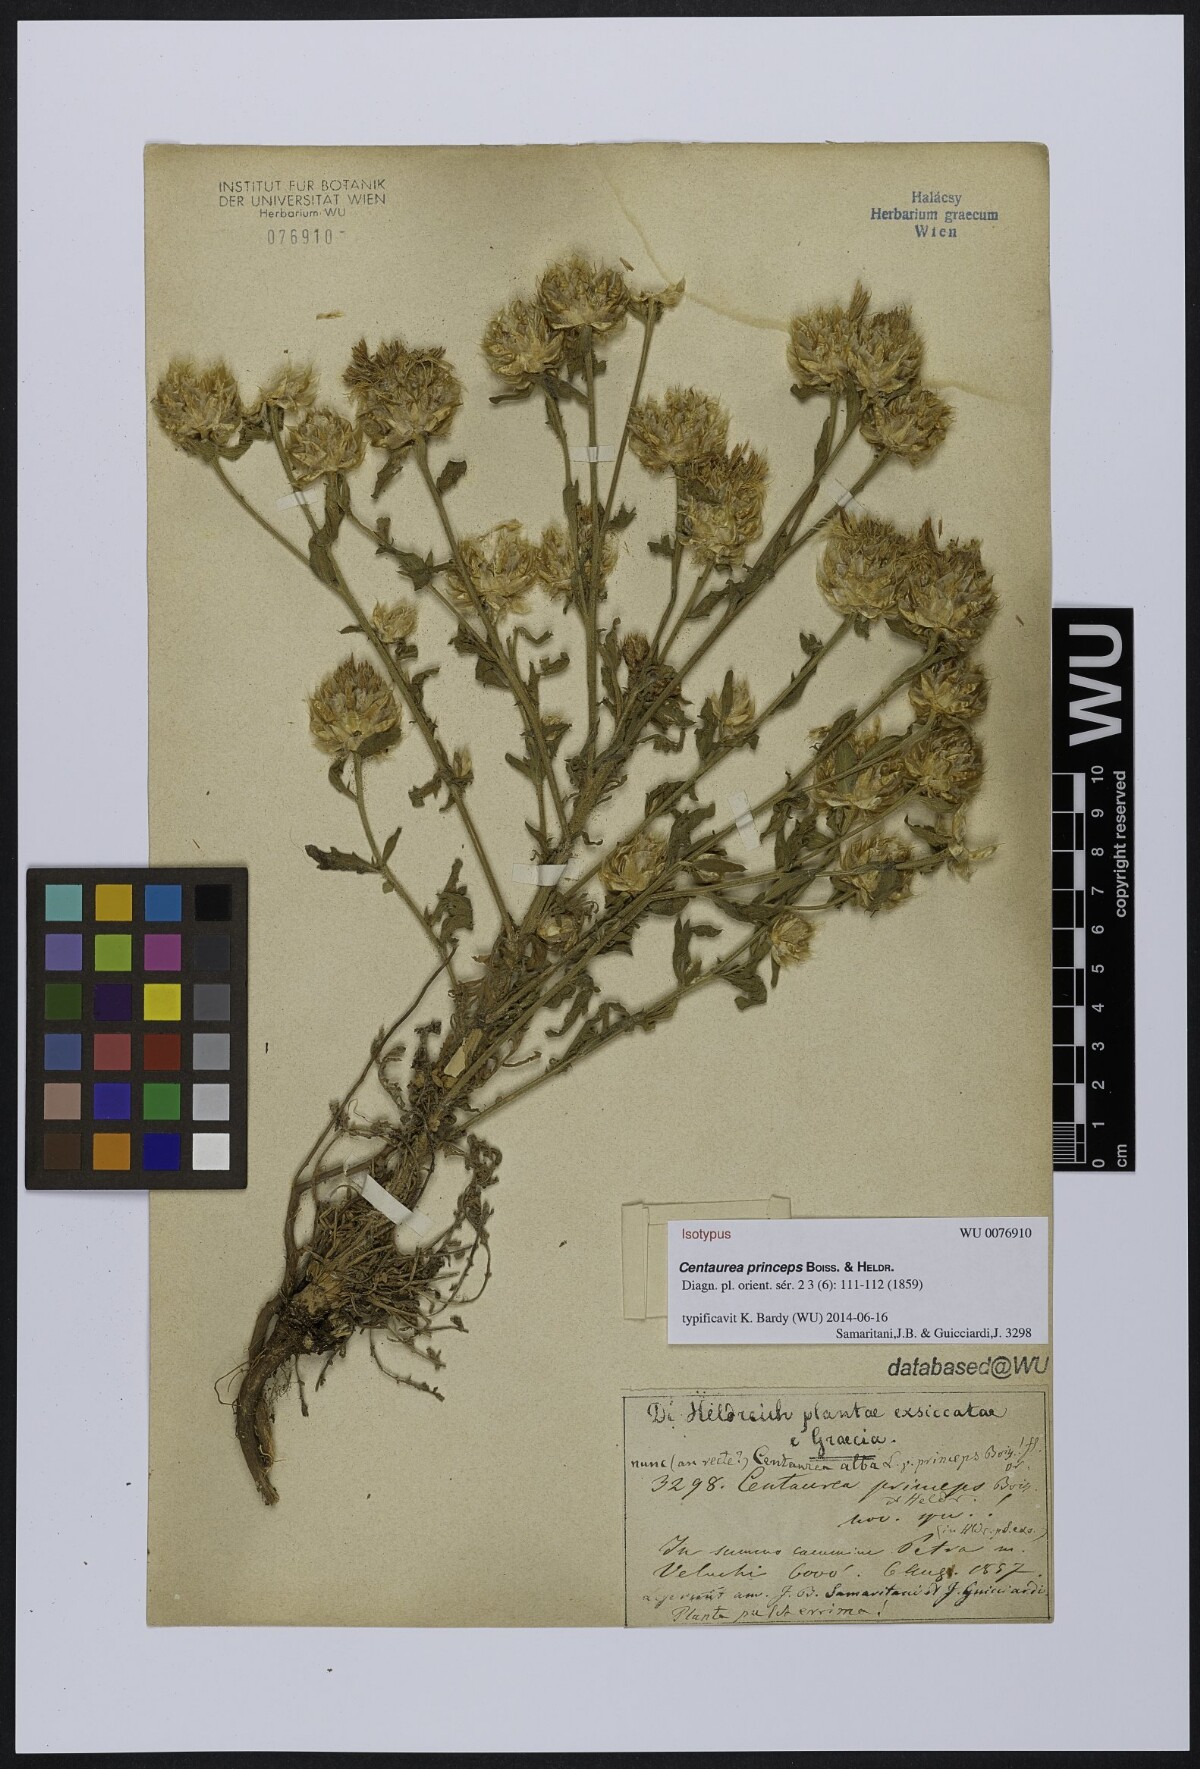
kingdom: Plantae
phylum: Tracheophyta
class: Magnoliopsida
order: Asterales
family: Asteraceae
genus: Centaurea
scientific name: Centaurea princeps
